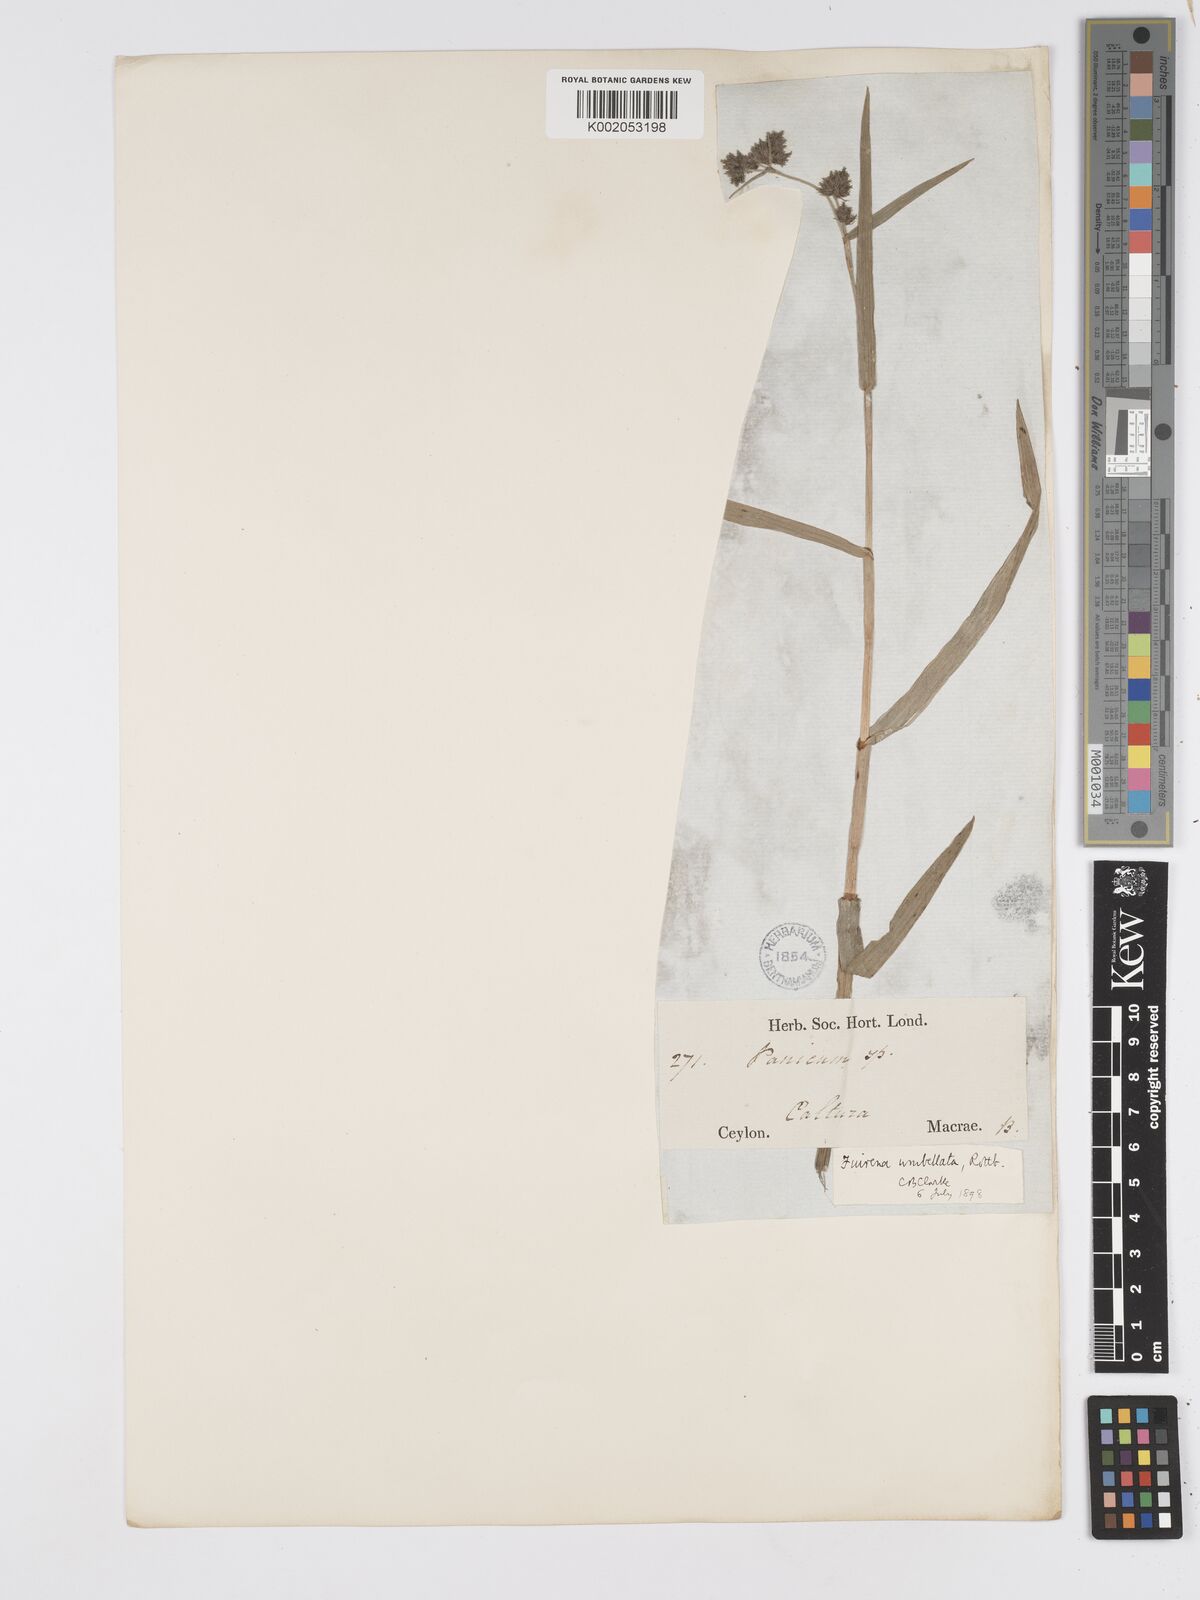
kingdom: Plantae
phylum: Tracheophyta
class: Liliopsida
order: Poales
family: Cyperaceae
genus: Fuirena
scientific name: Fuirena umbellata
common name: Yefen
